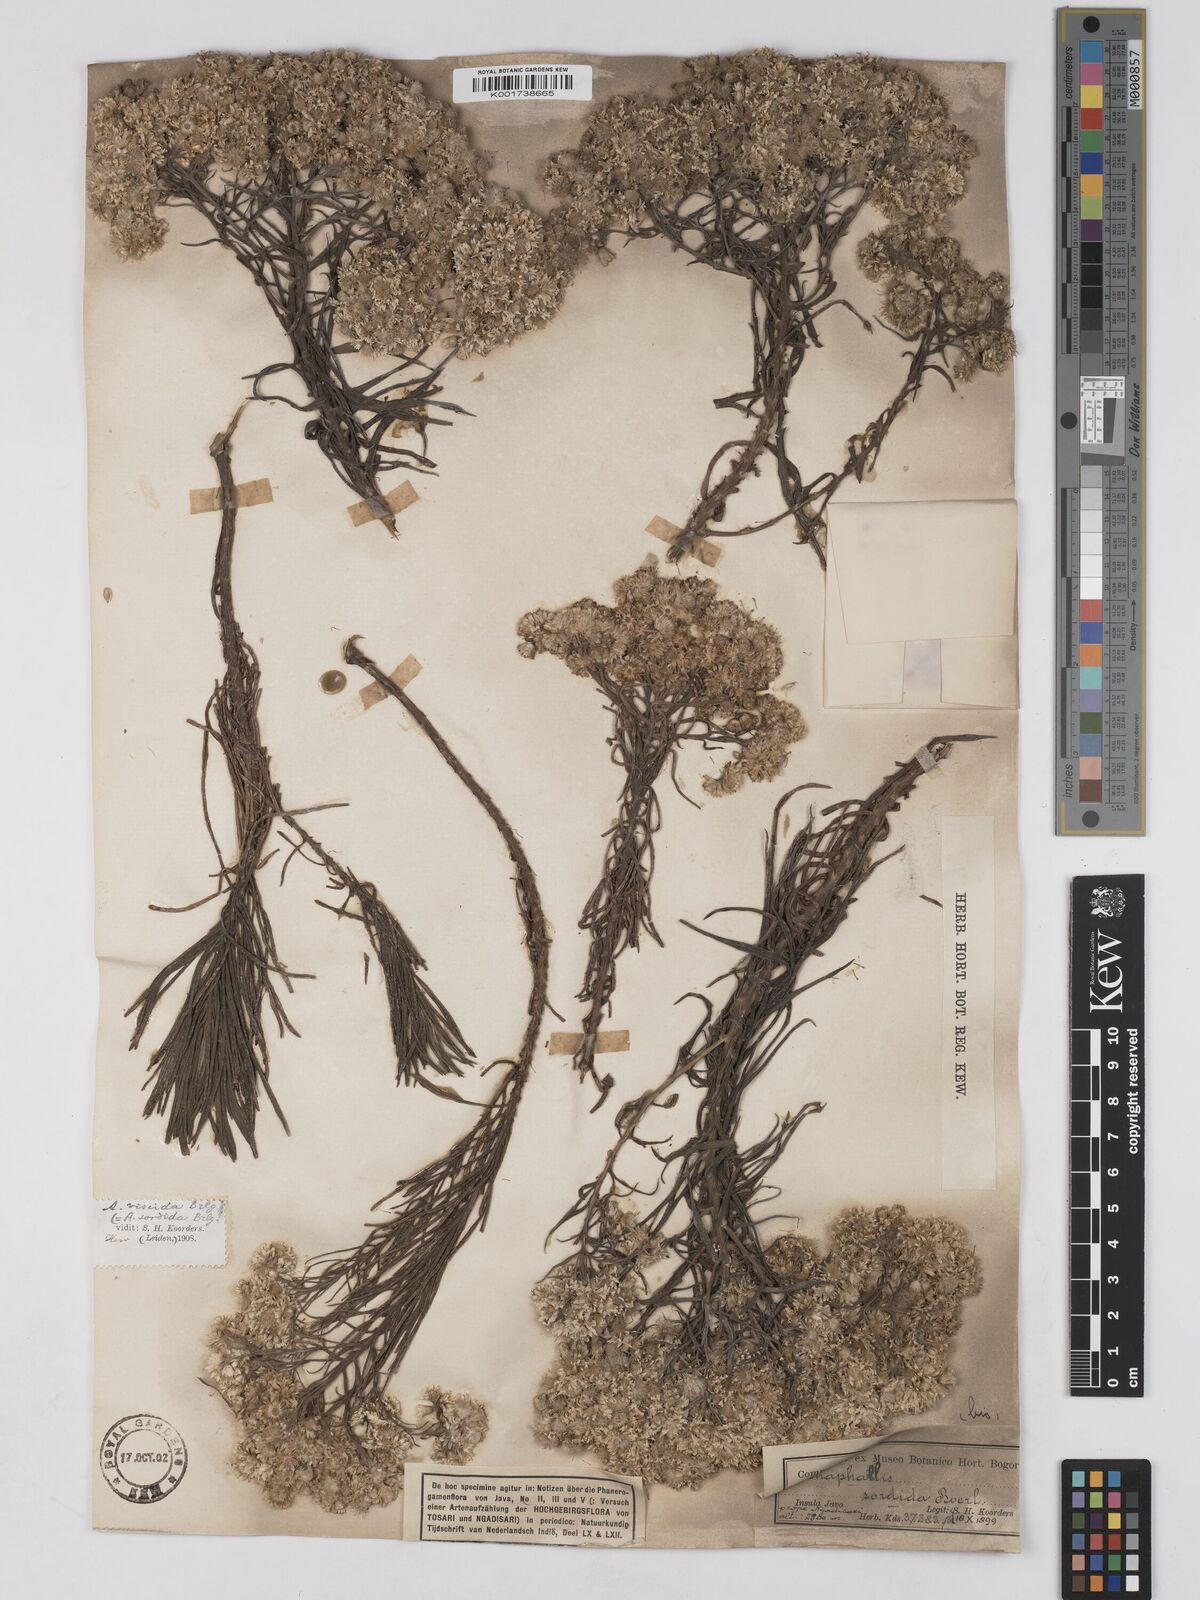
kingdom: Plantae
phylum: Tracheophyta
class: Magnoliopsida
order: Asterales
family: Asteraceae
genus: Anaphalis
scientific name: Anaphalis viscida
